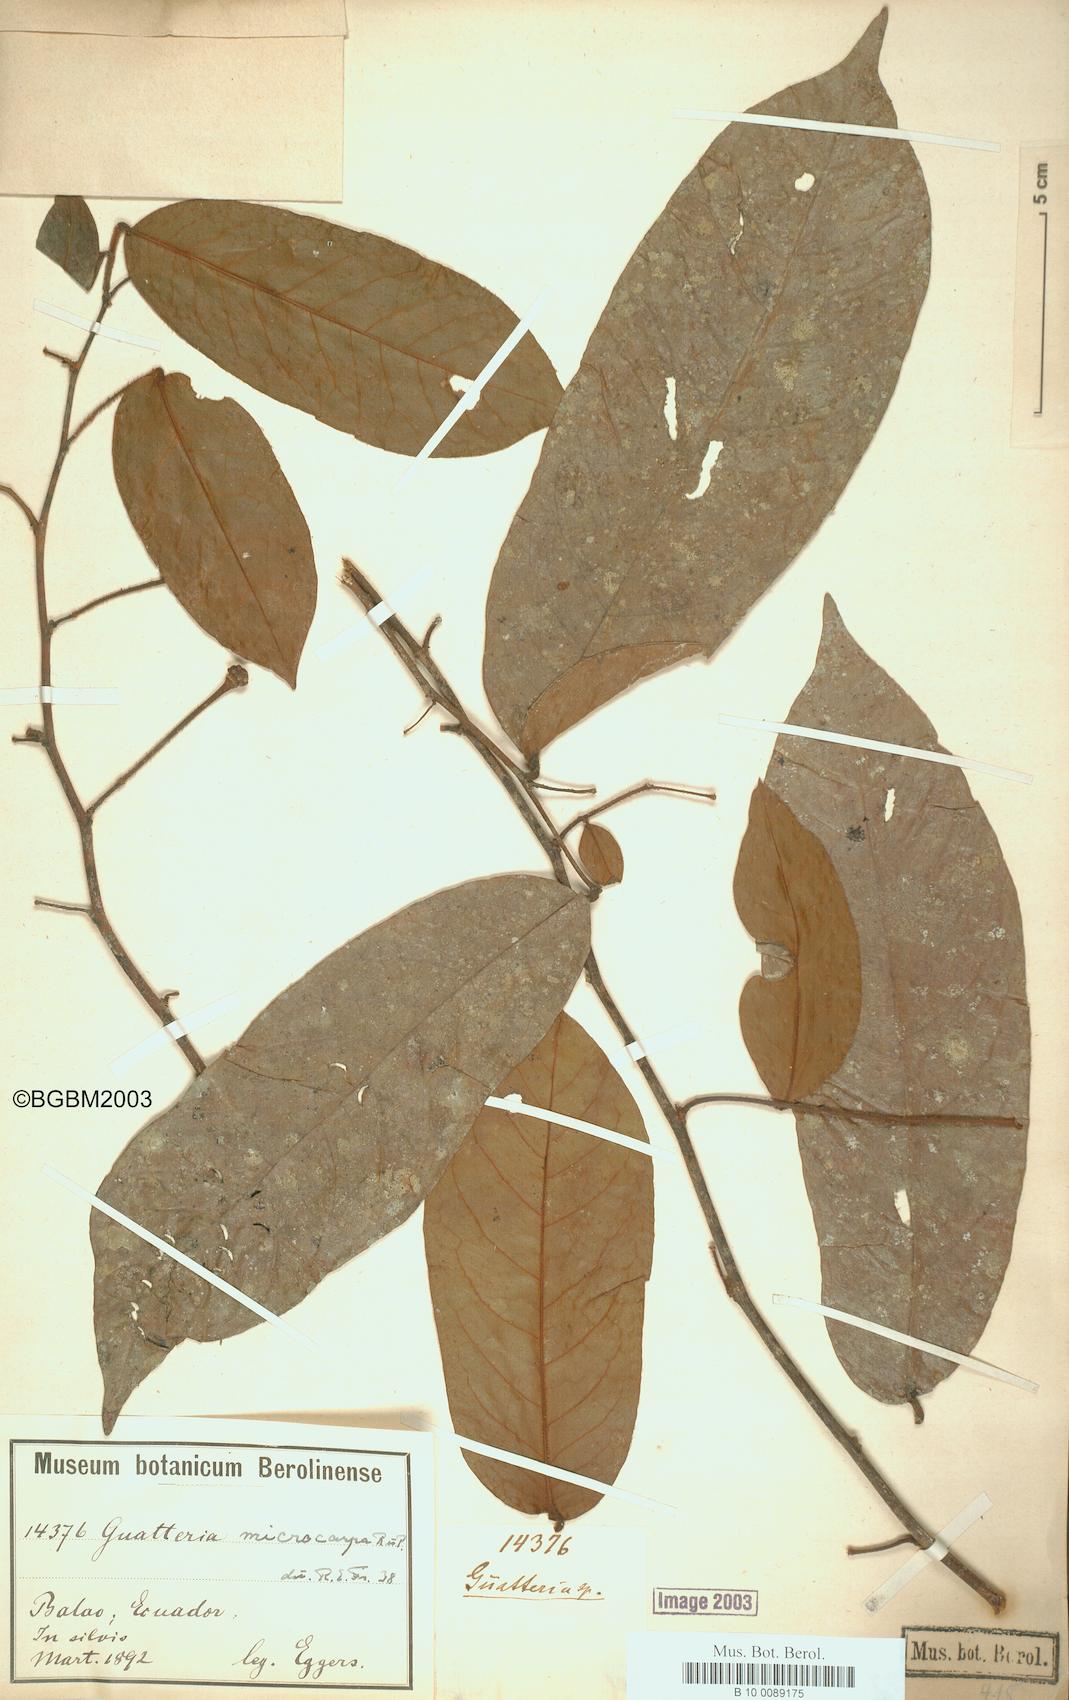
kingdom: Plantae
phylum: Tracheophyta
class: Magnoliopsida
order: Magnoliales
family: Annonaceae
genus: Guatteria
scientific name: Guatteria microcarpa
